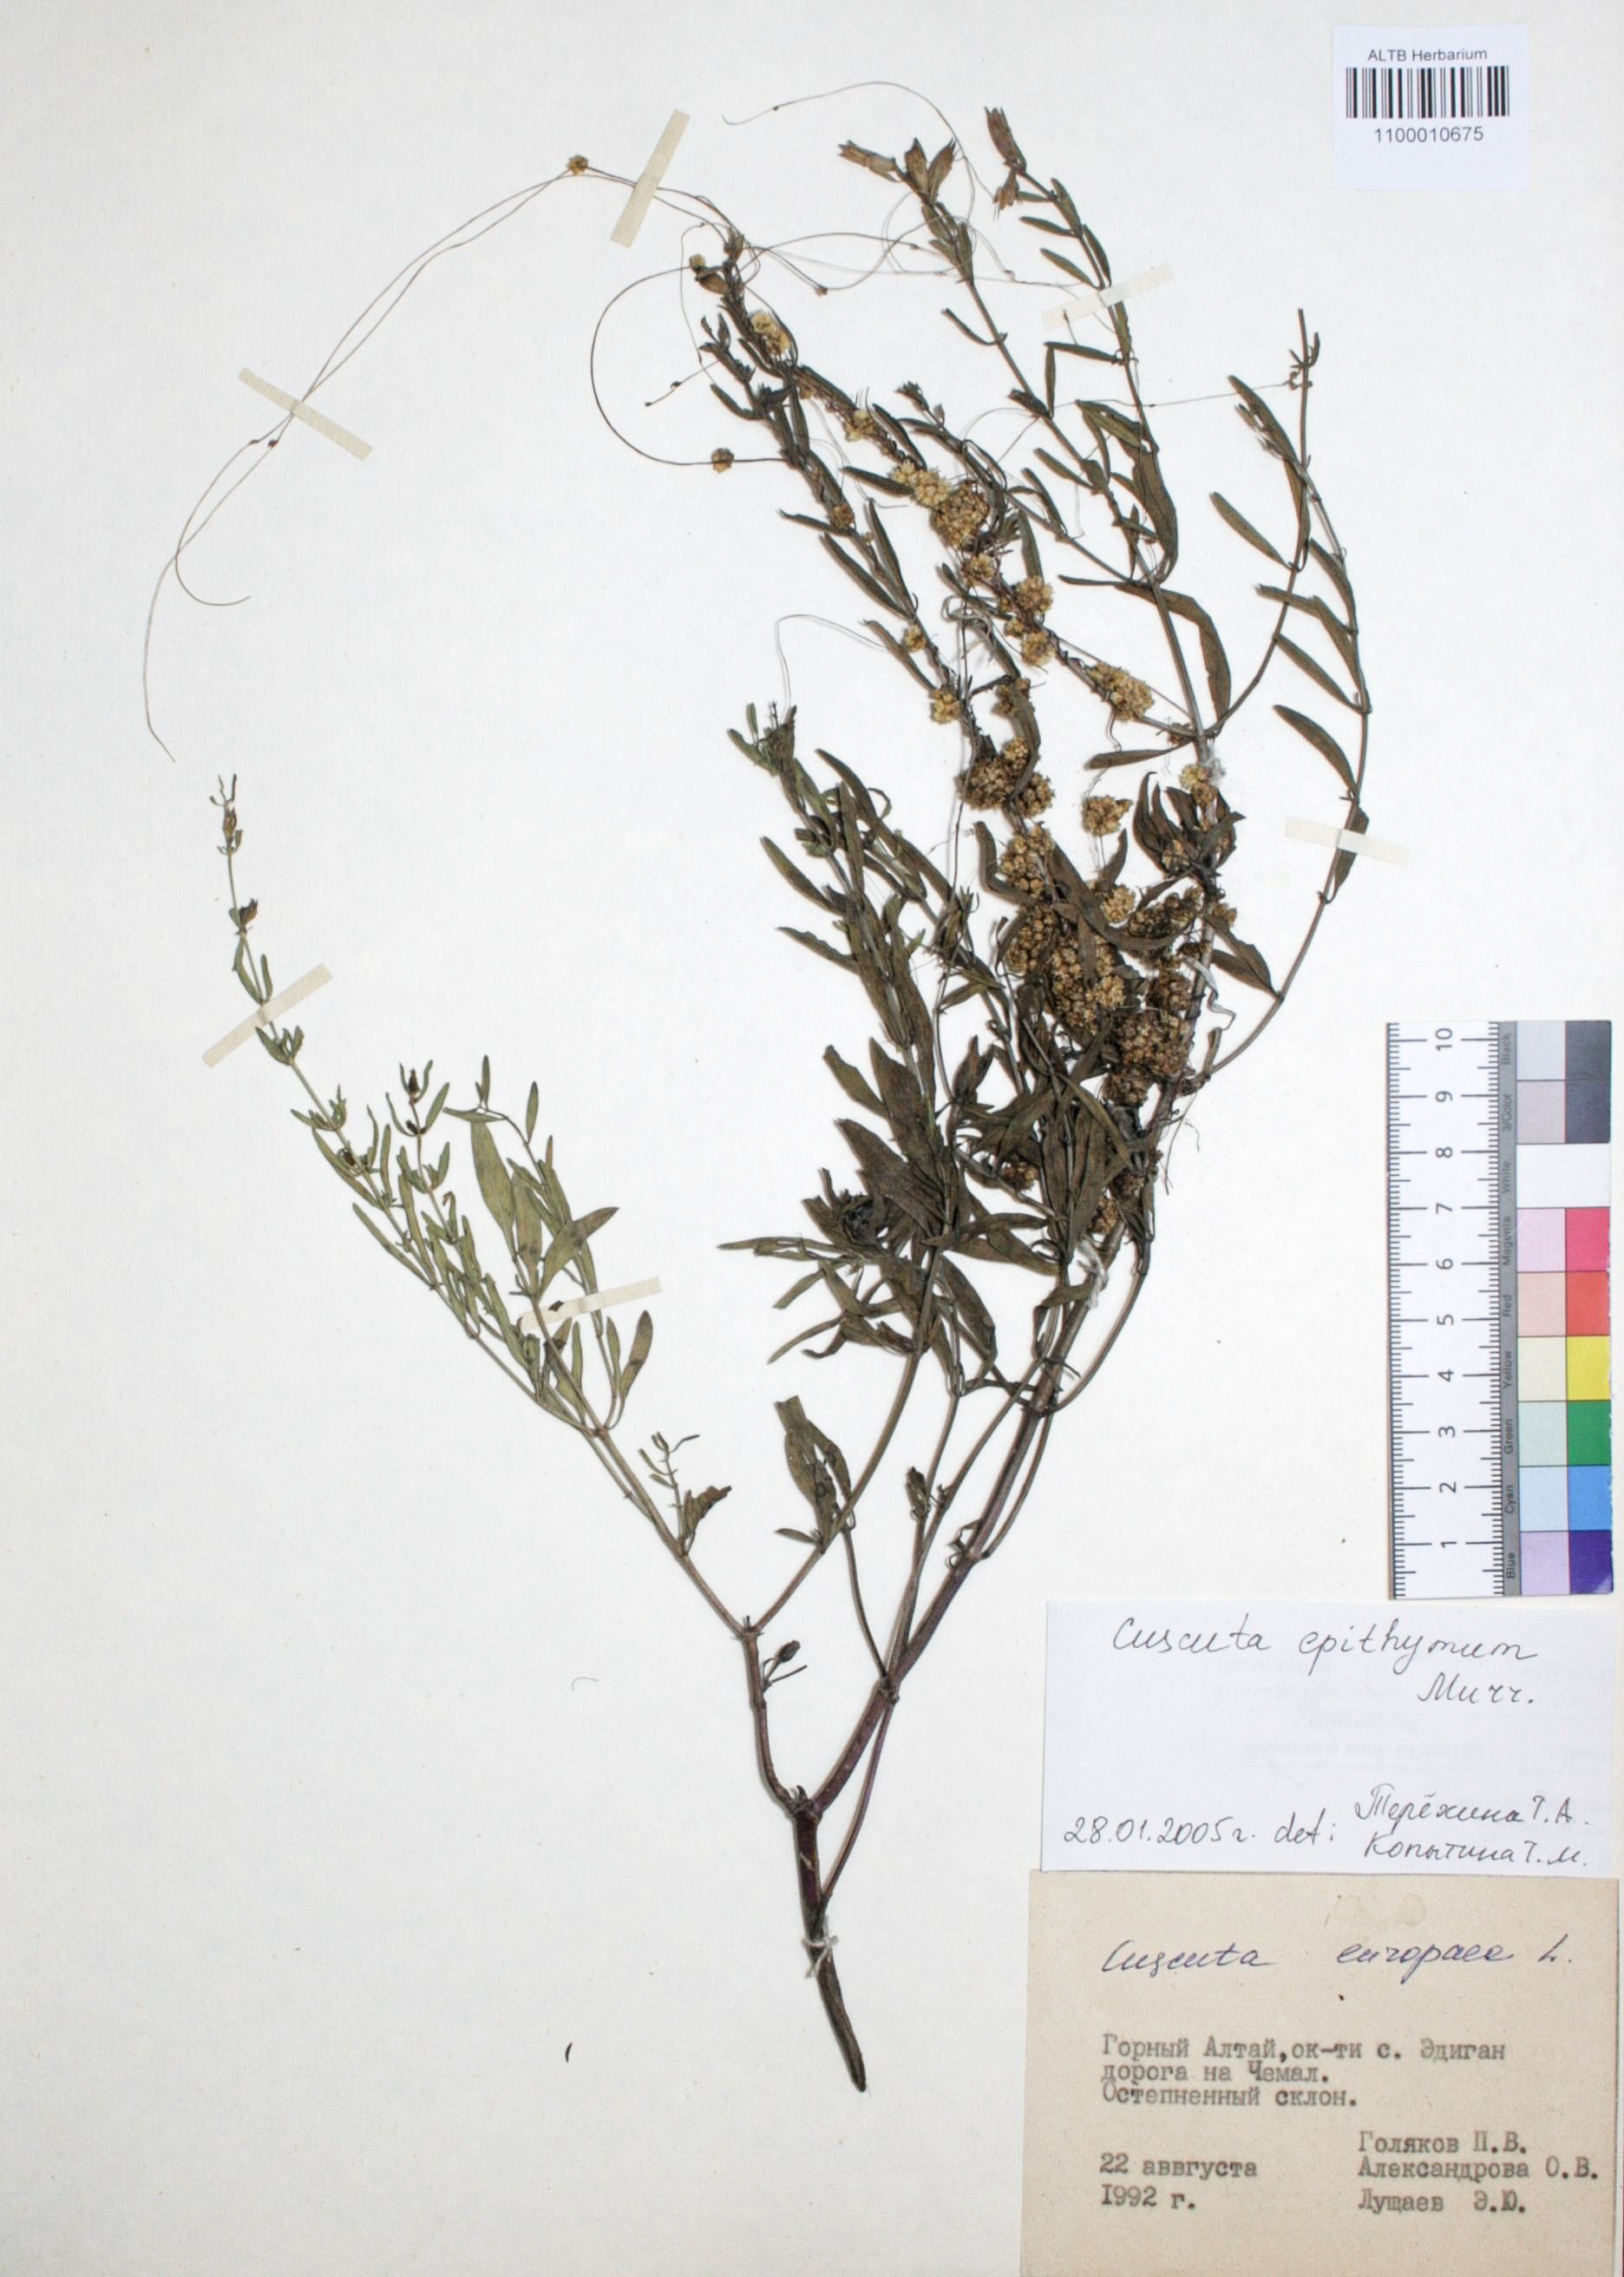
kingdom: Plantae
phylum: Tracheophyta
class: Magnoliopsida
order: Solanales
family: Convolvulaceae
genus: Cuscuta
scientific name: Cuscuta europaea
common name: Greater dodder
